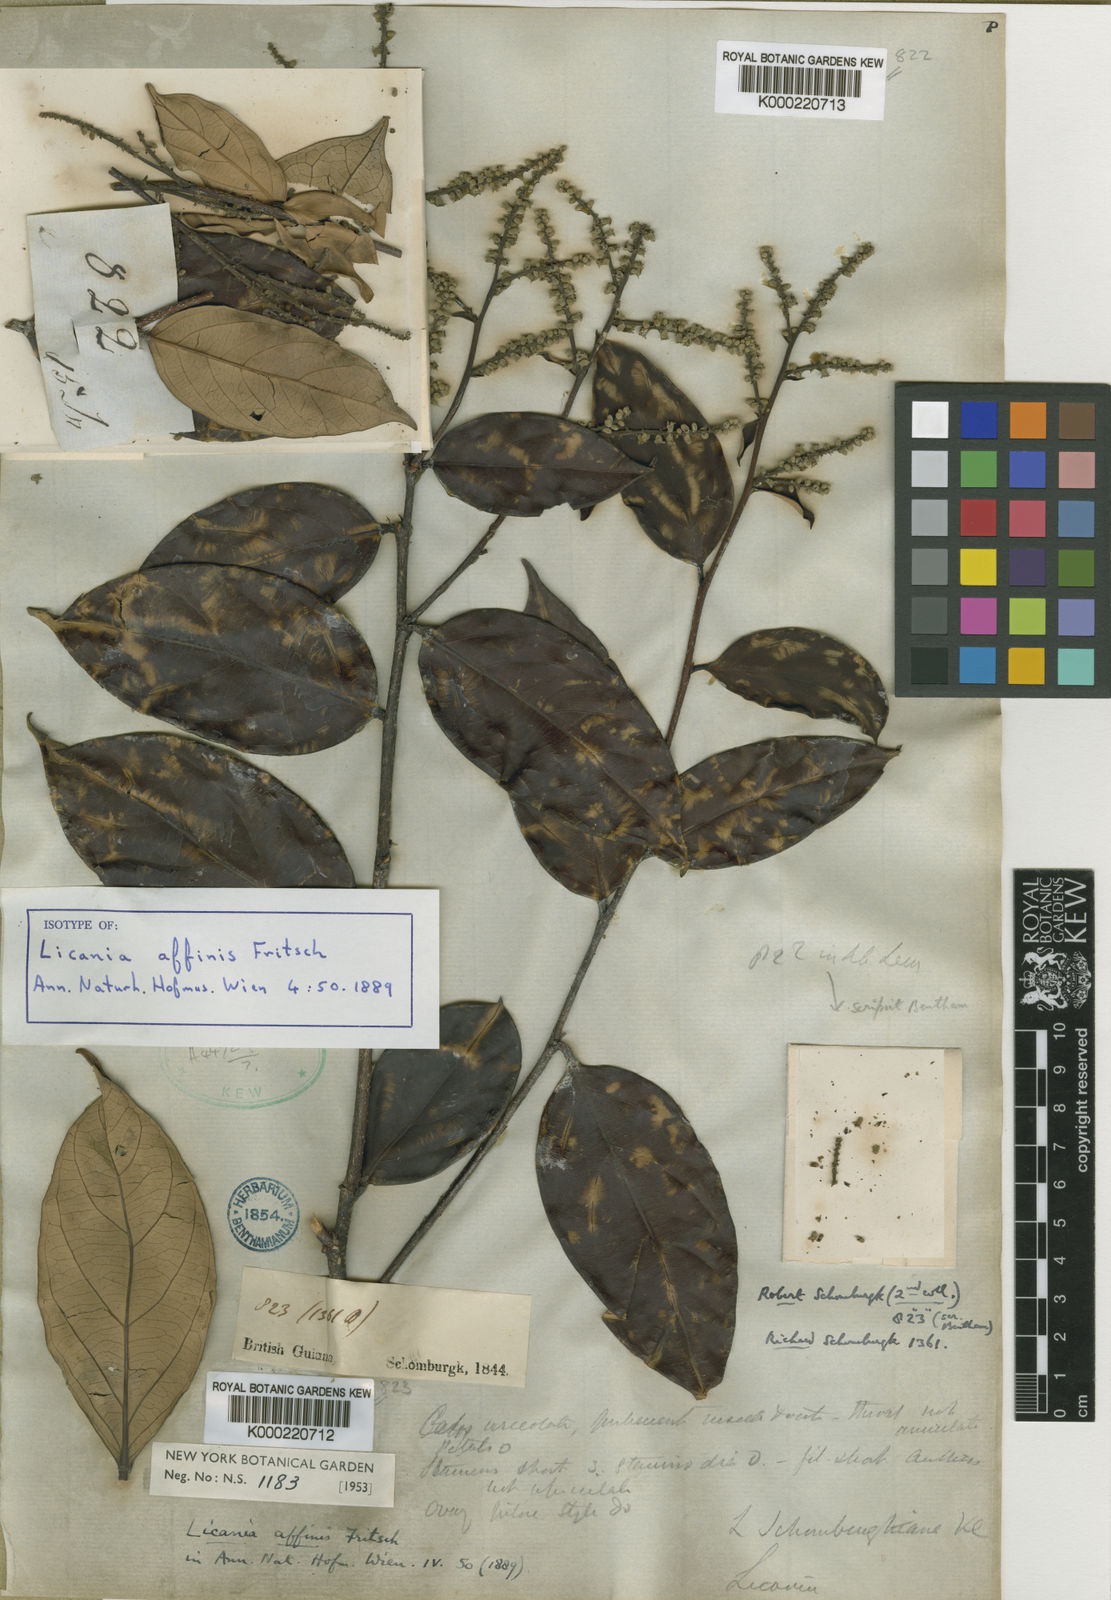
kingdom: Plantae
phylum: Tracheophyta
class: Magnoliopsida
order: Malpighiales
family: Chrysobalanaceae
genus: Licania
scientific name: Licania affinis
